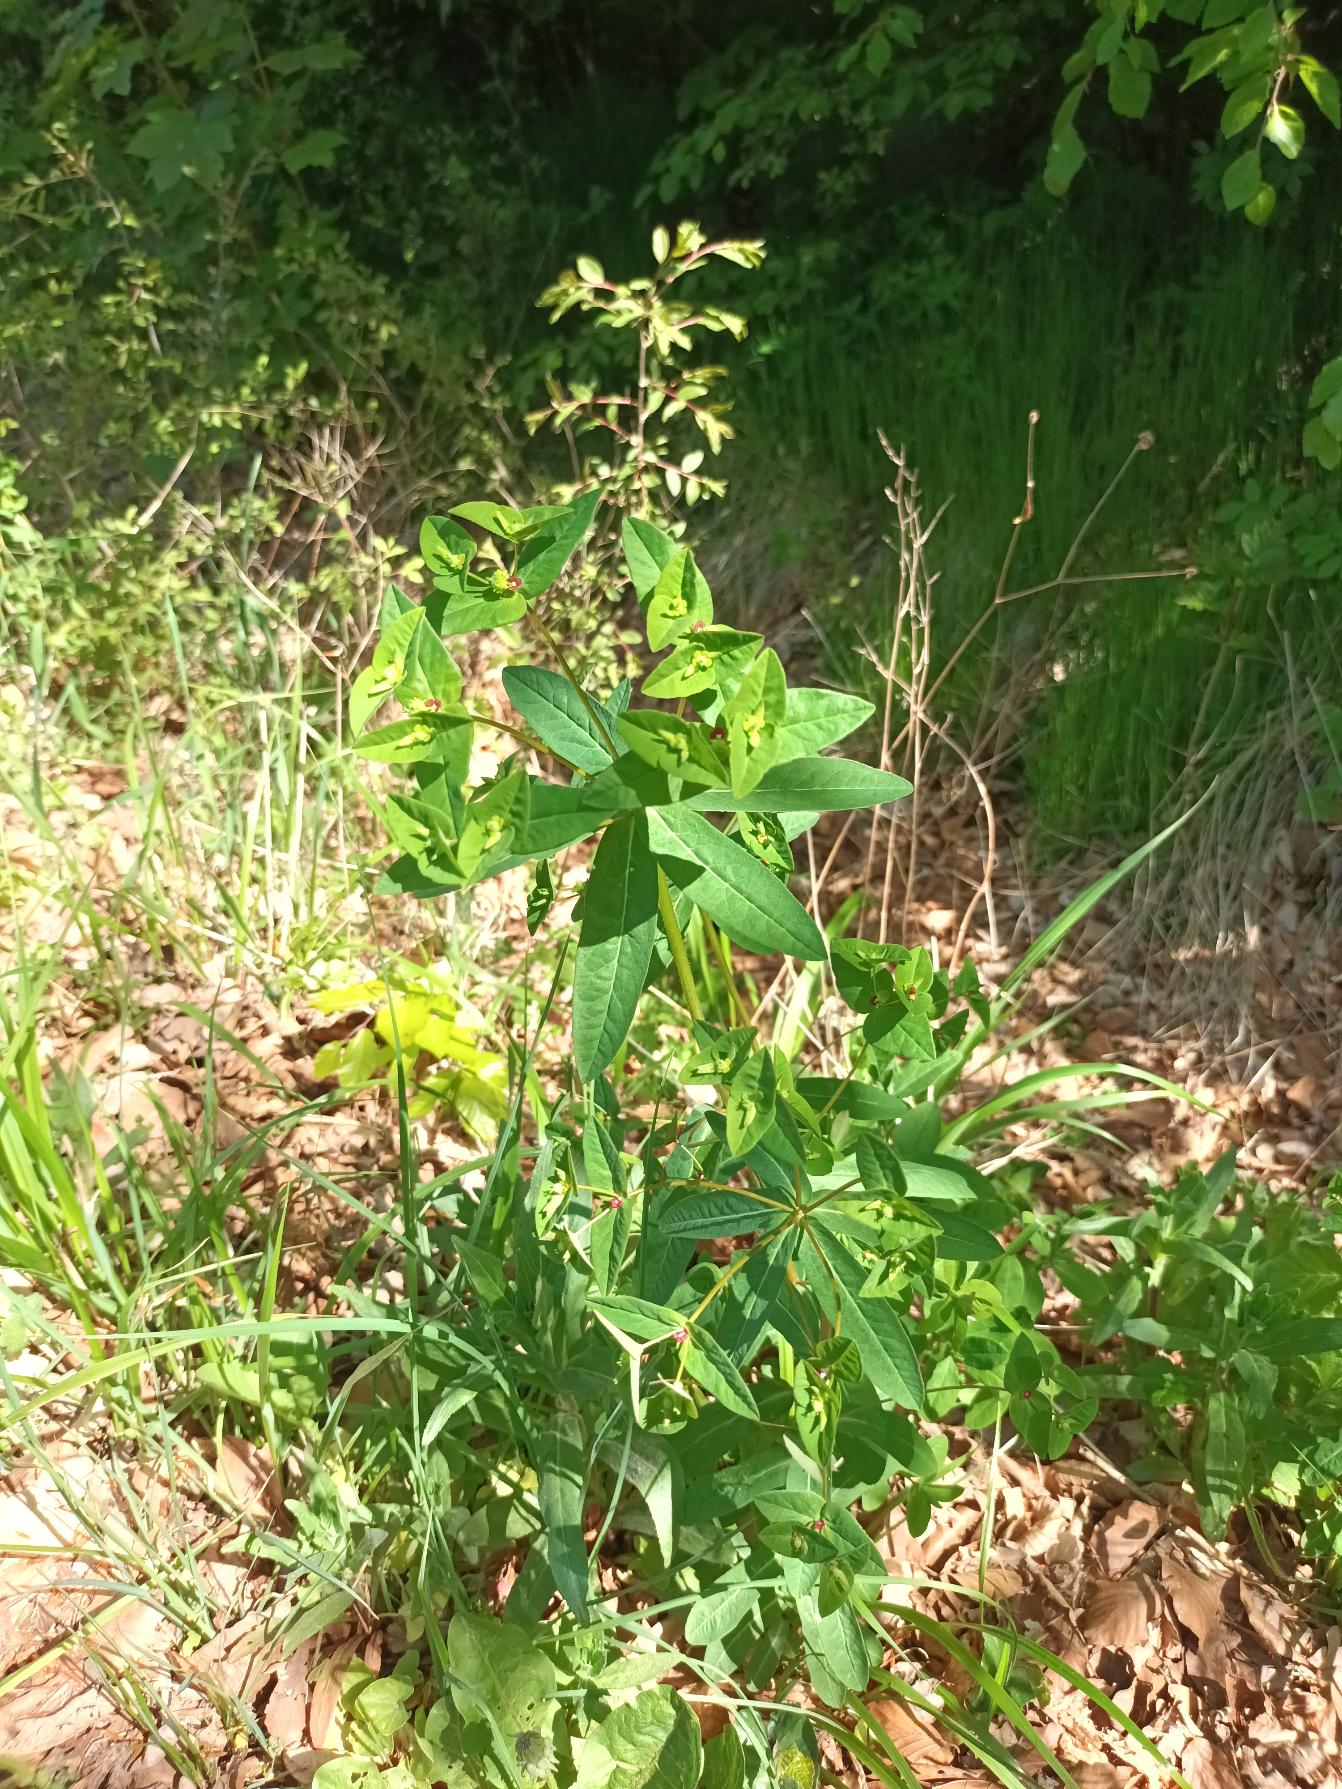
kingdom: Plantae
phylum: Tracheophyta
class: Magnoliopsida
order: Malpighiales
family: Euphorbiaceae
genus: Euphorbia
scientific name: Euphorbia dulcis
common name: Knold-vortemælk
